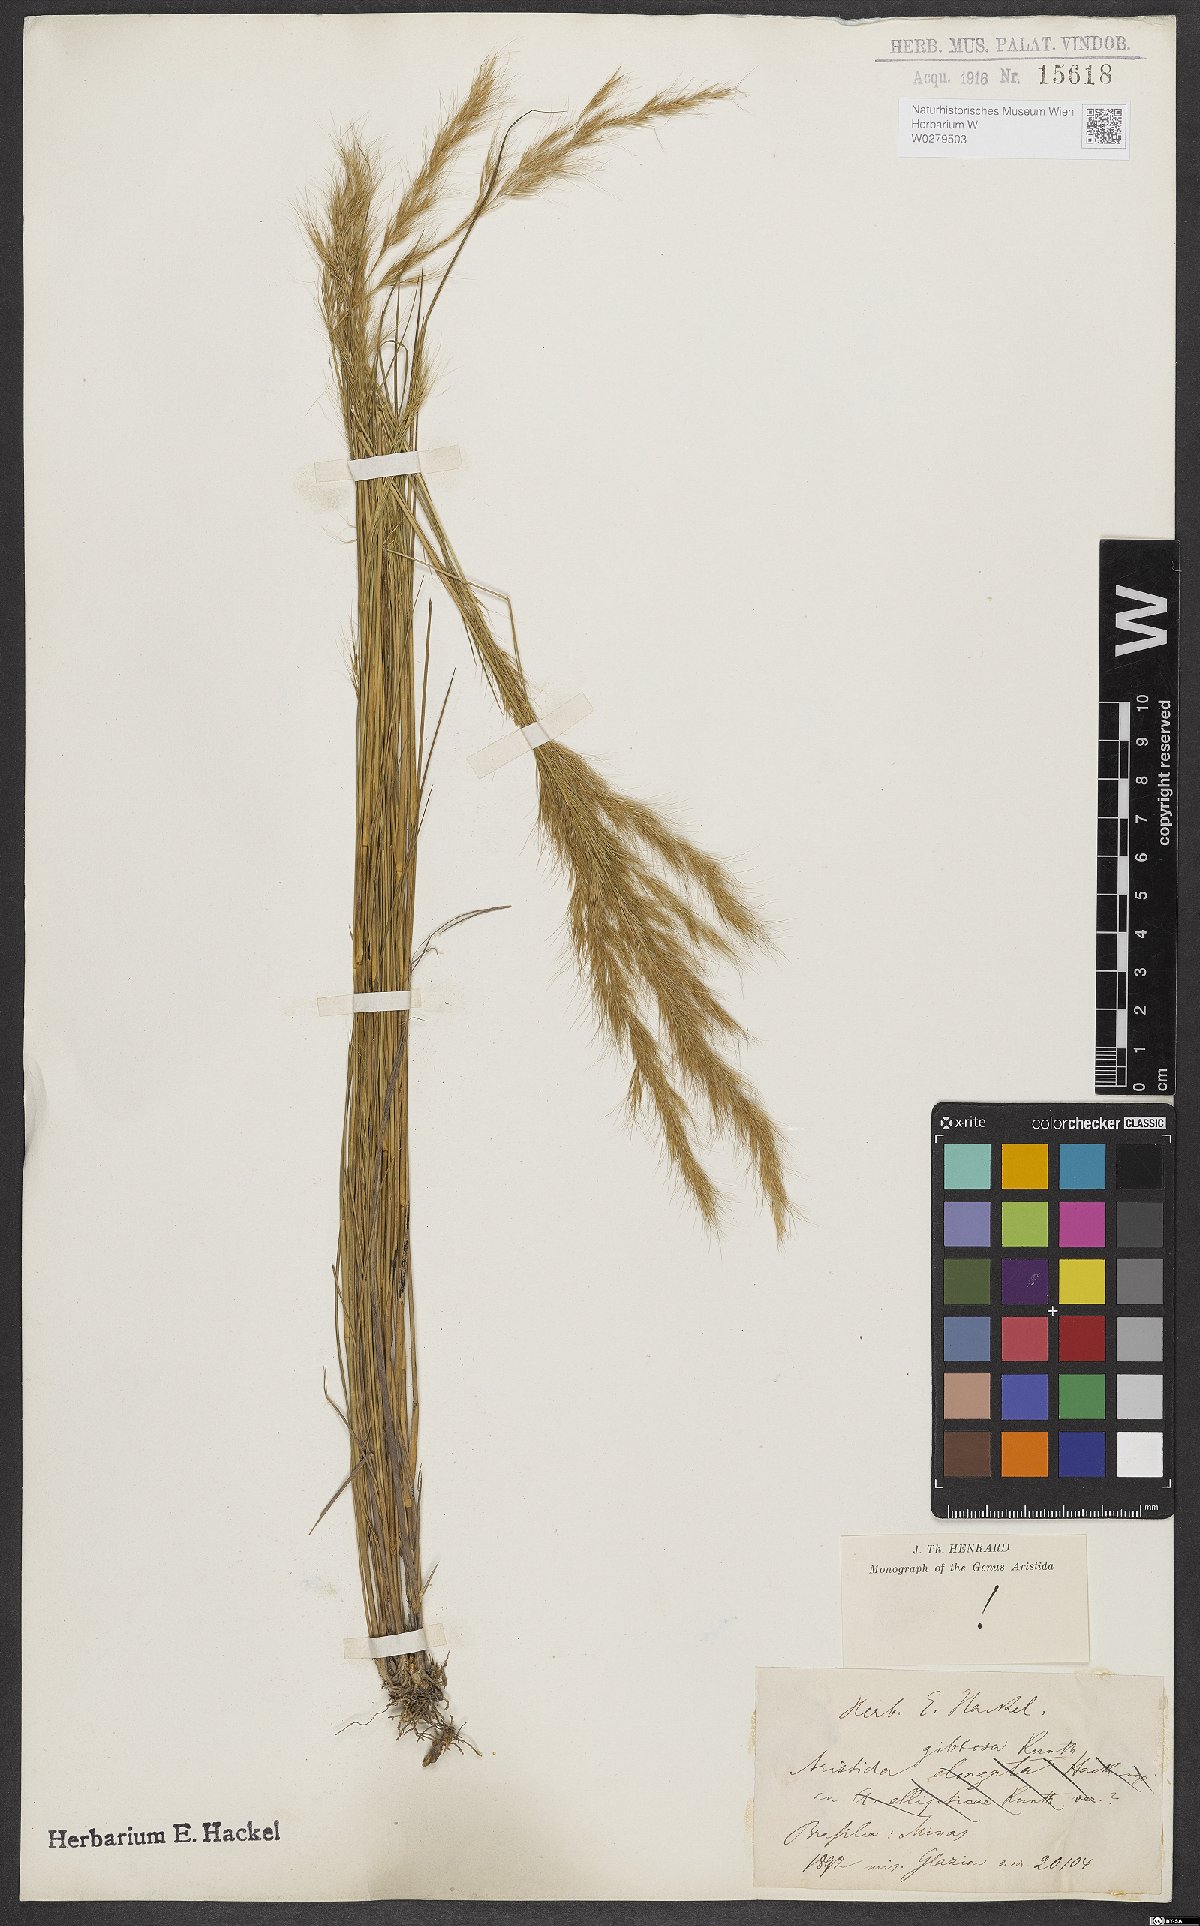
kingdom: Plantae
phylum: Tracheophyta
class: Liliopsida
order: Poales
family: Poaceae
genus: Aristida
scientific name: Aristida gibbosa
